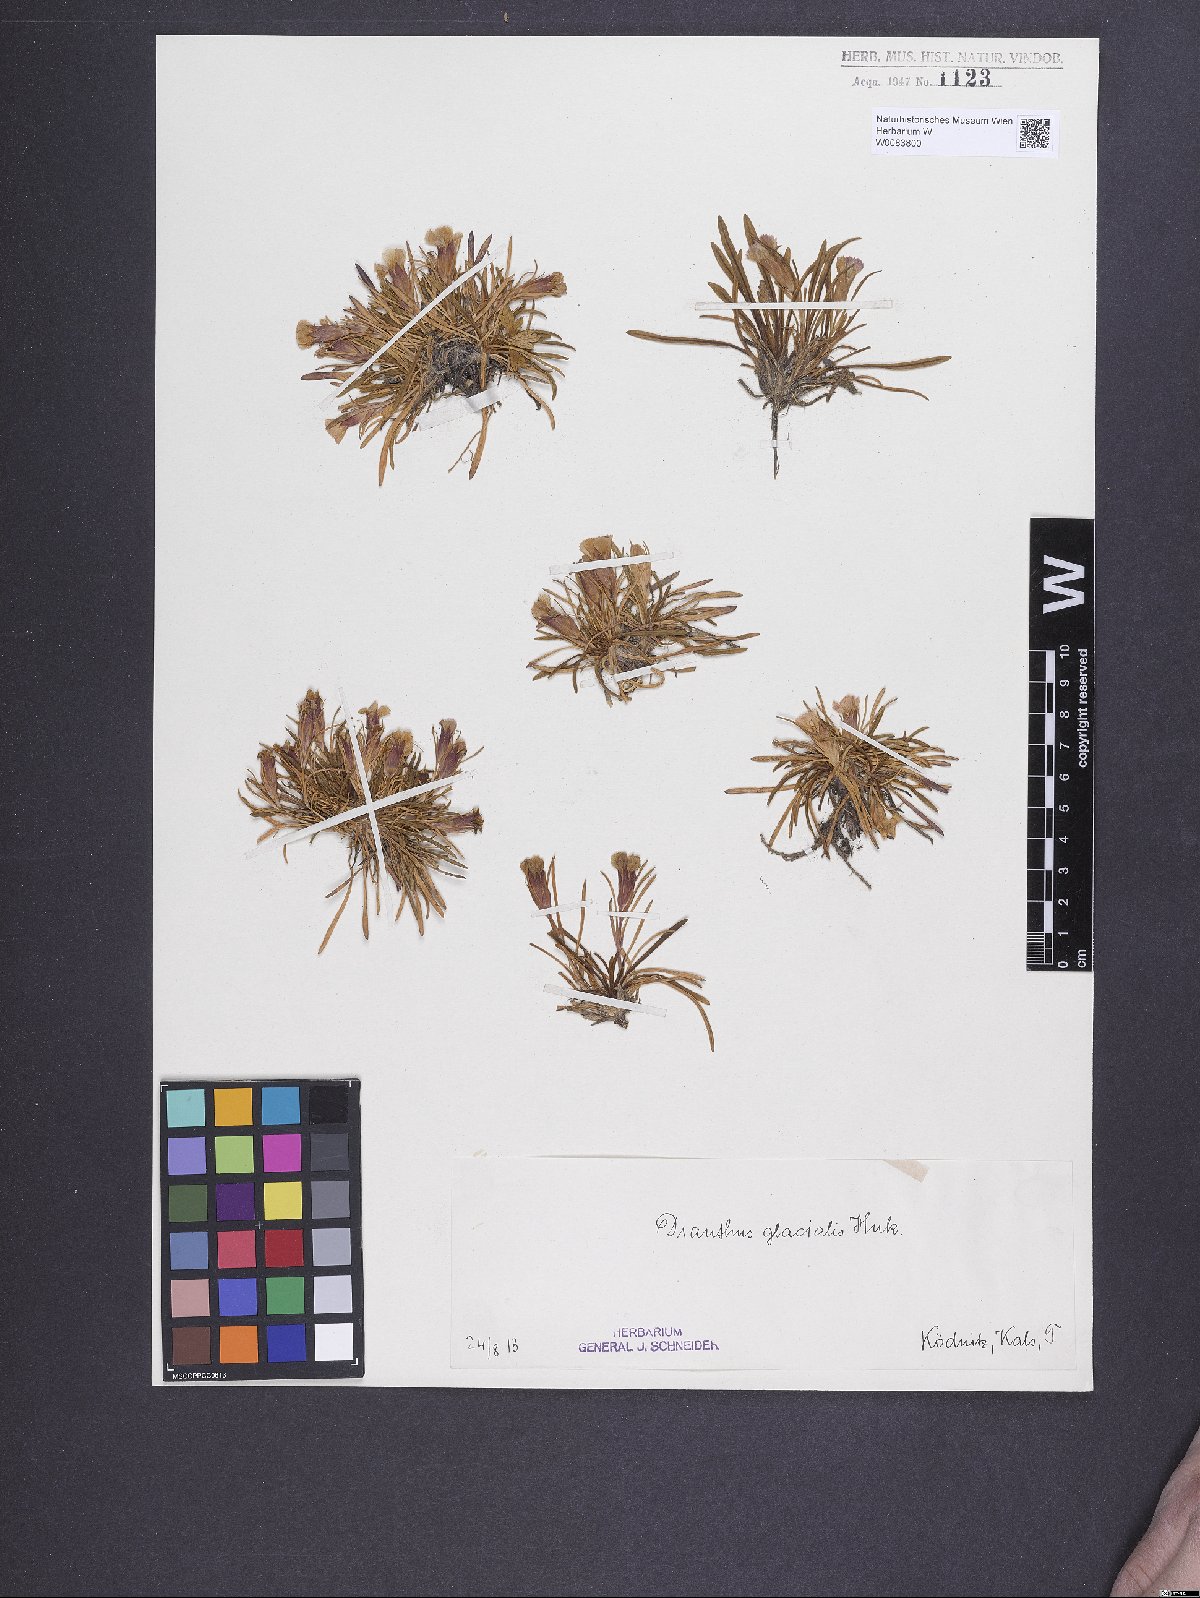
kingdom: Plantae
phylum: Tracheophyta
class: Magnoliopsida
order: Caryophyllales
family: Caryophyllaceae
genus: Dianthus
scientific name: Dianthus glacialis
